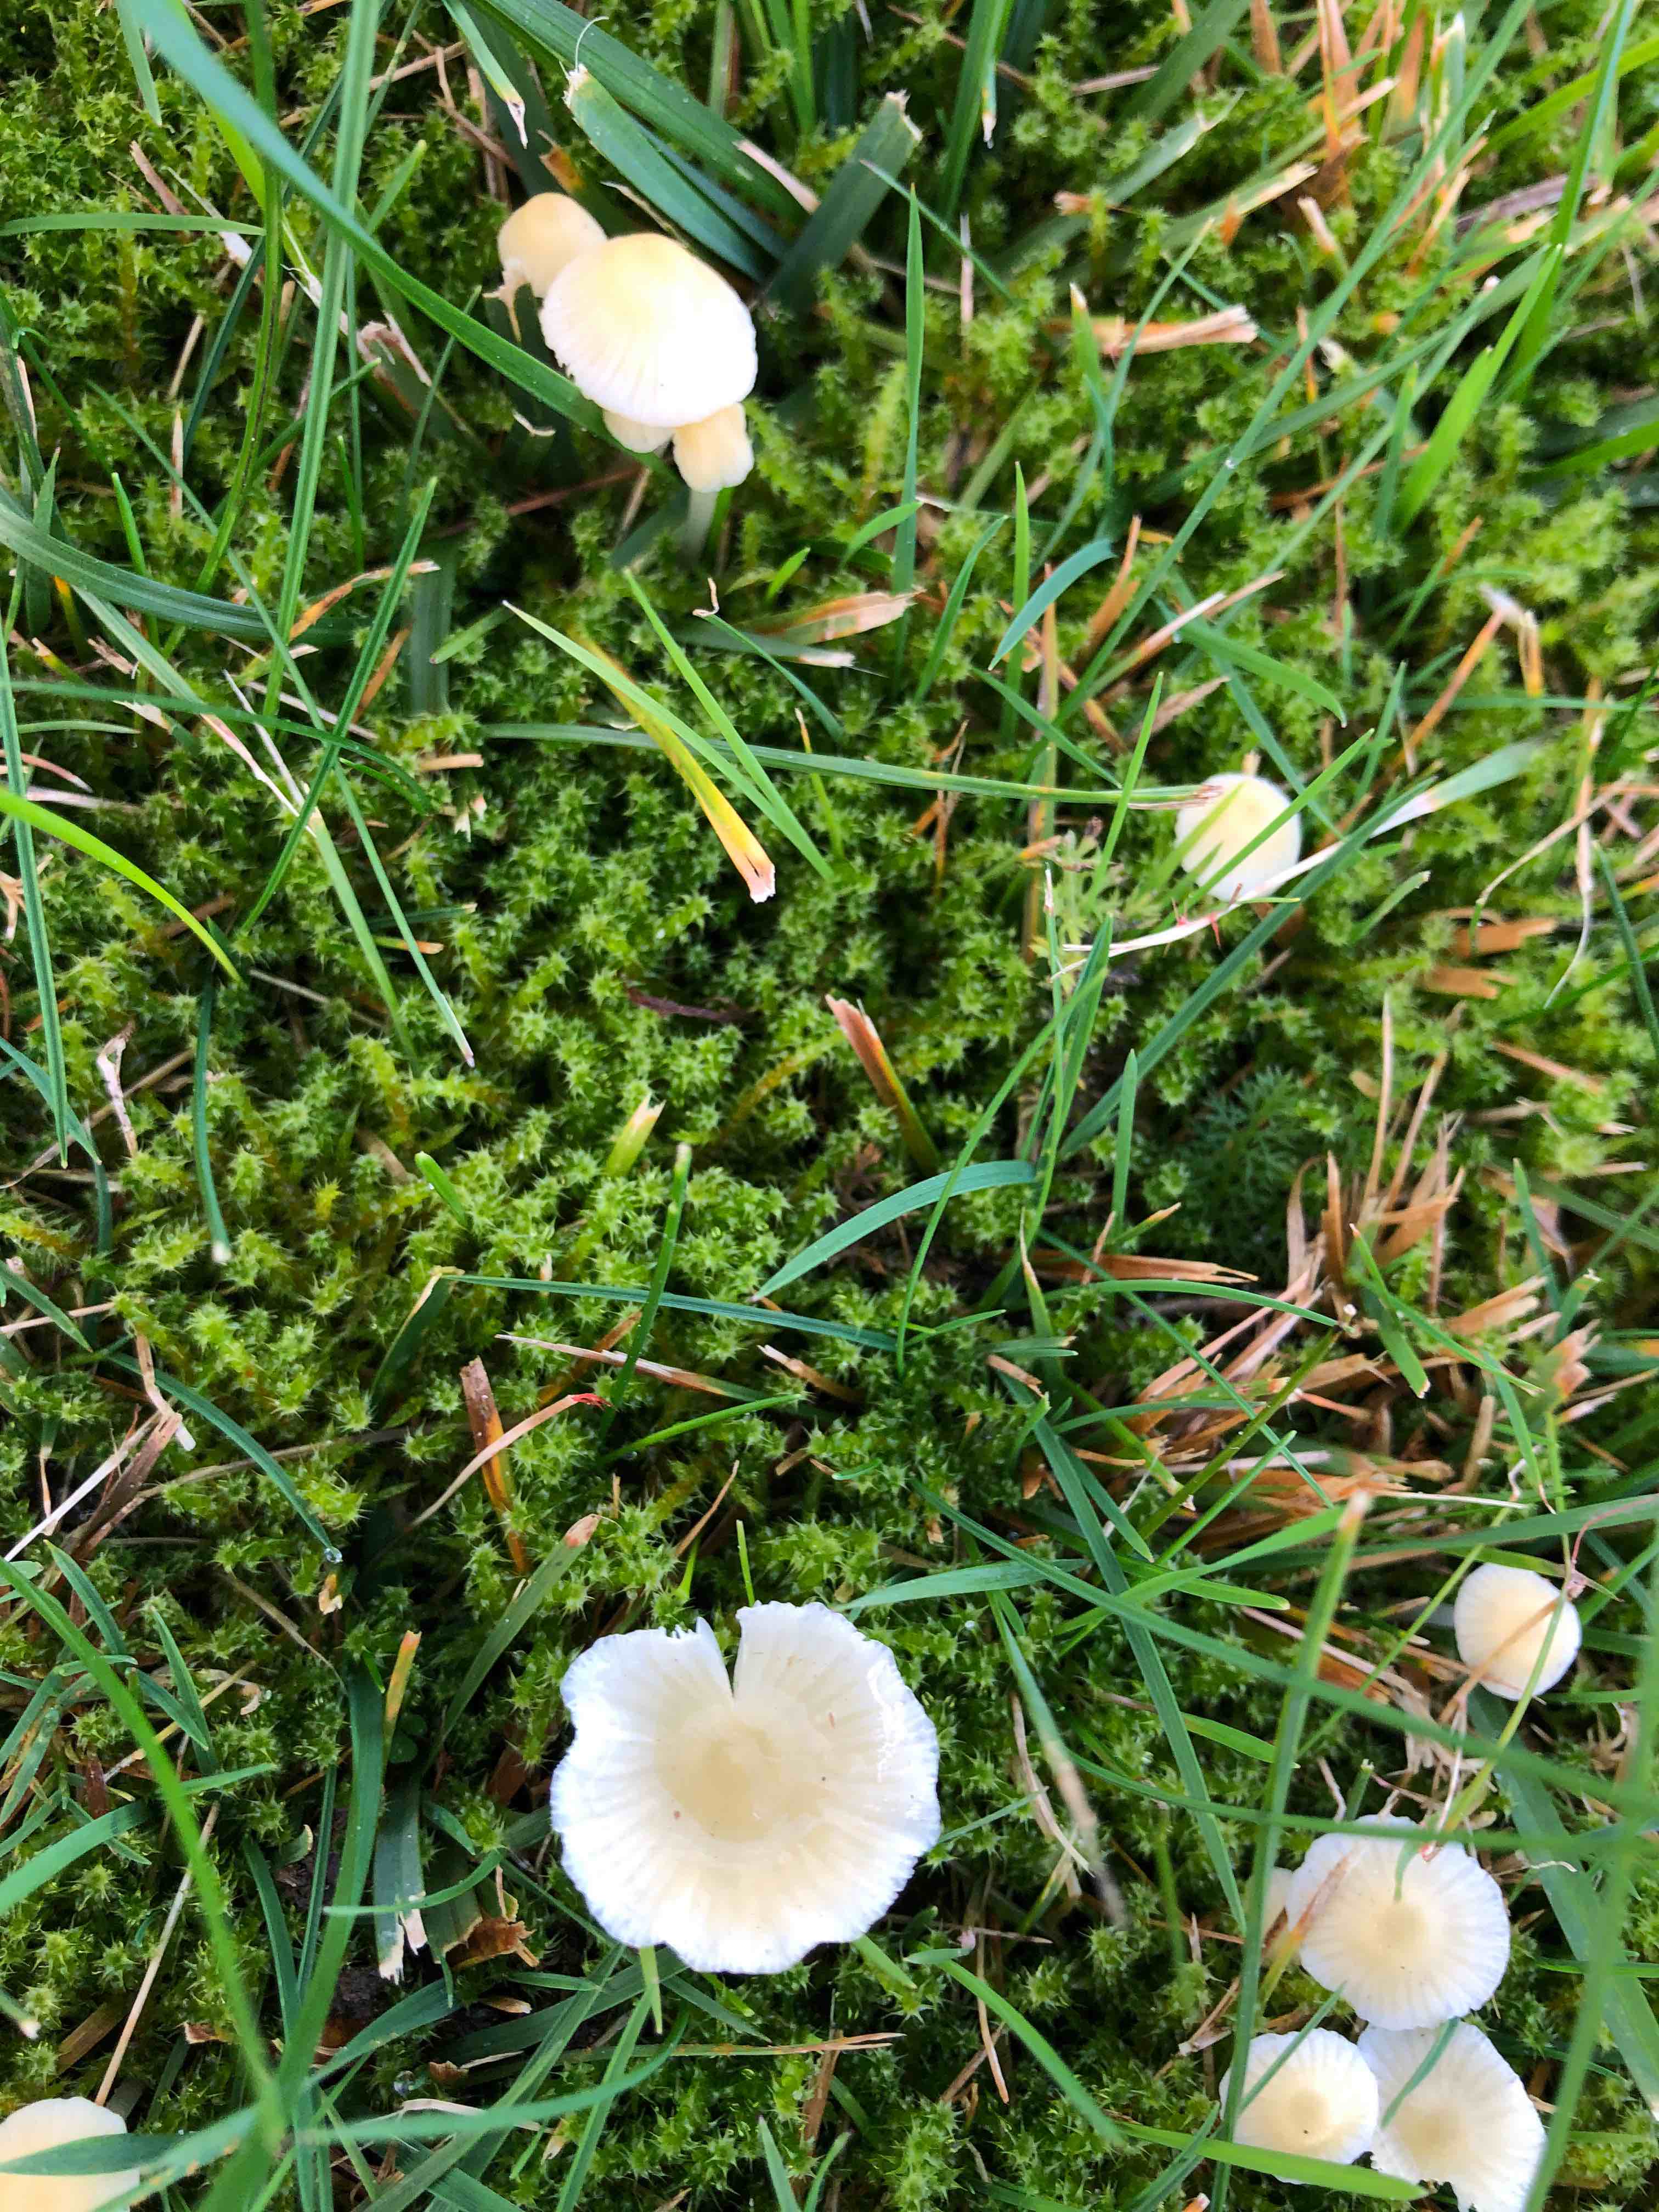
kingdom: Fungi
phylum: Basidiomycota
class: Agaricomycetes
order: Agaricales
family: Mycenaceae
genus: Atheniella
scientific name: Atheniella flavoalba
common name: gulhvid huesvamp
